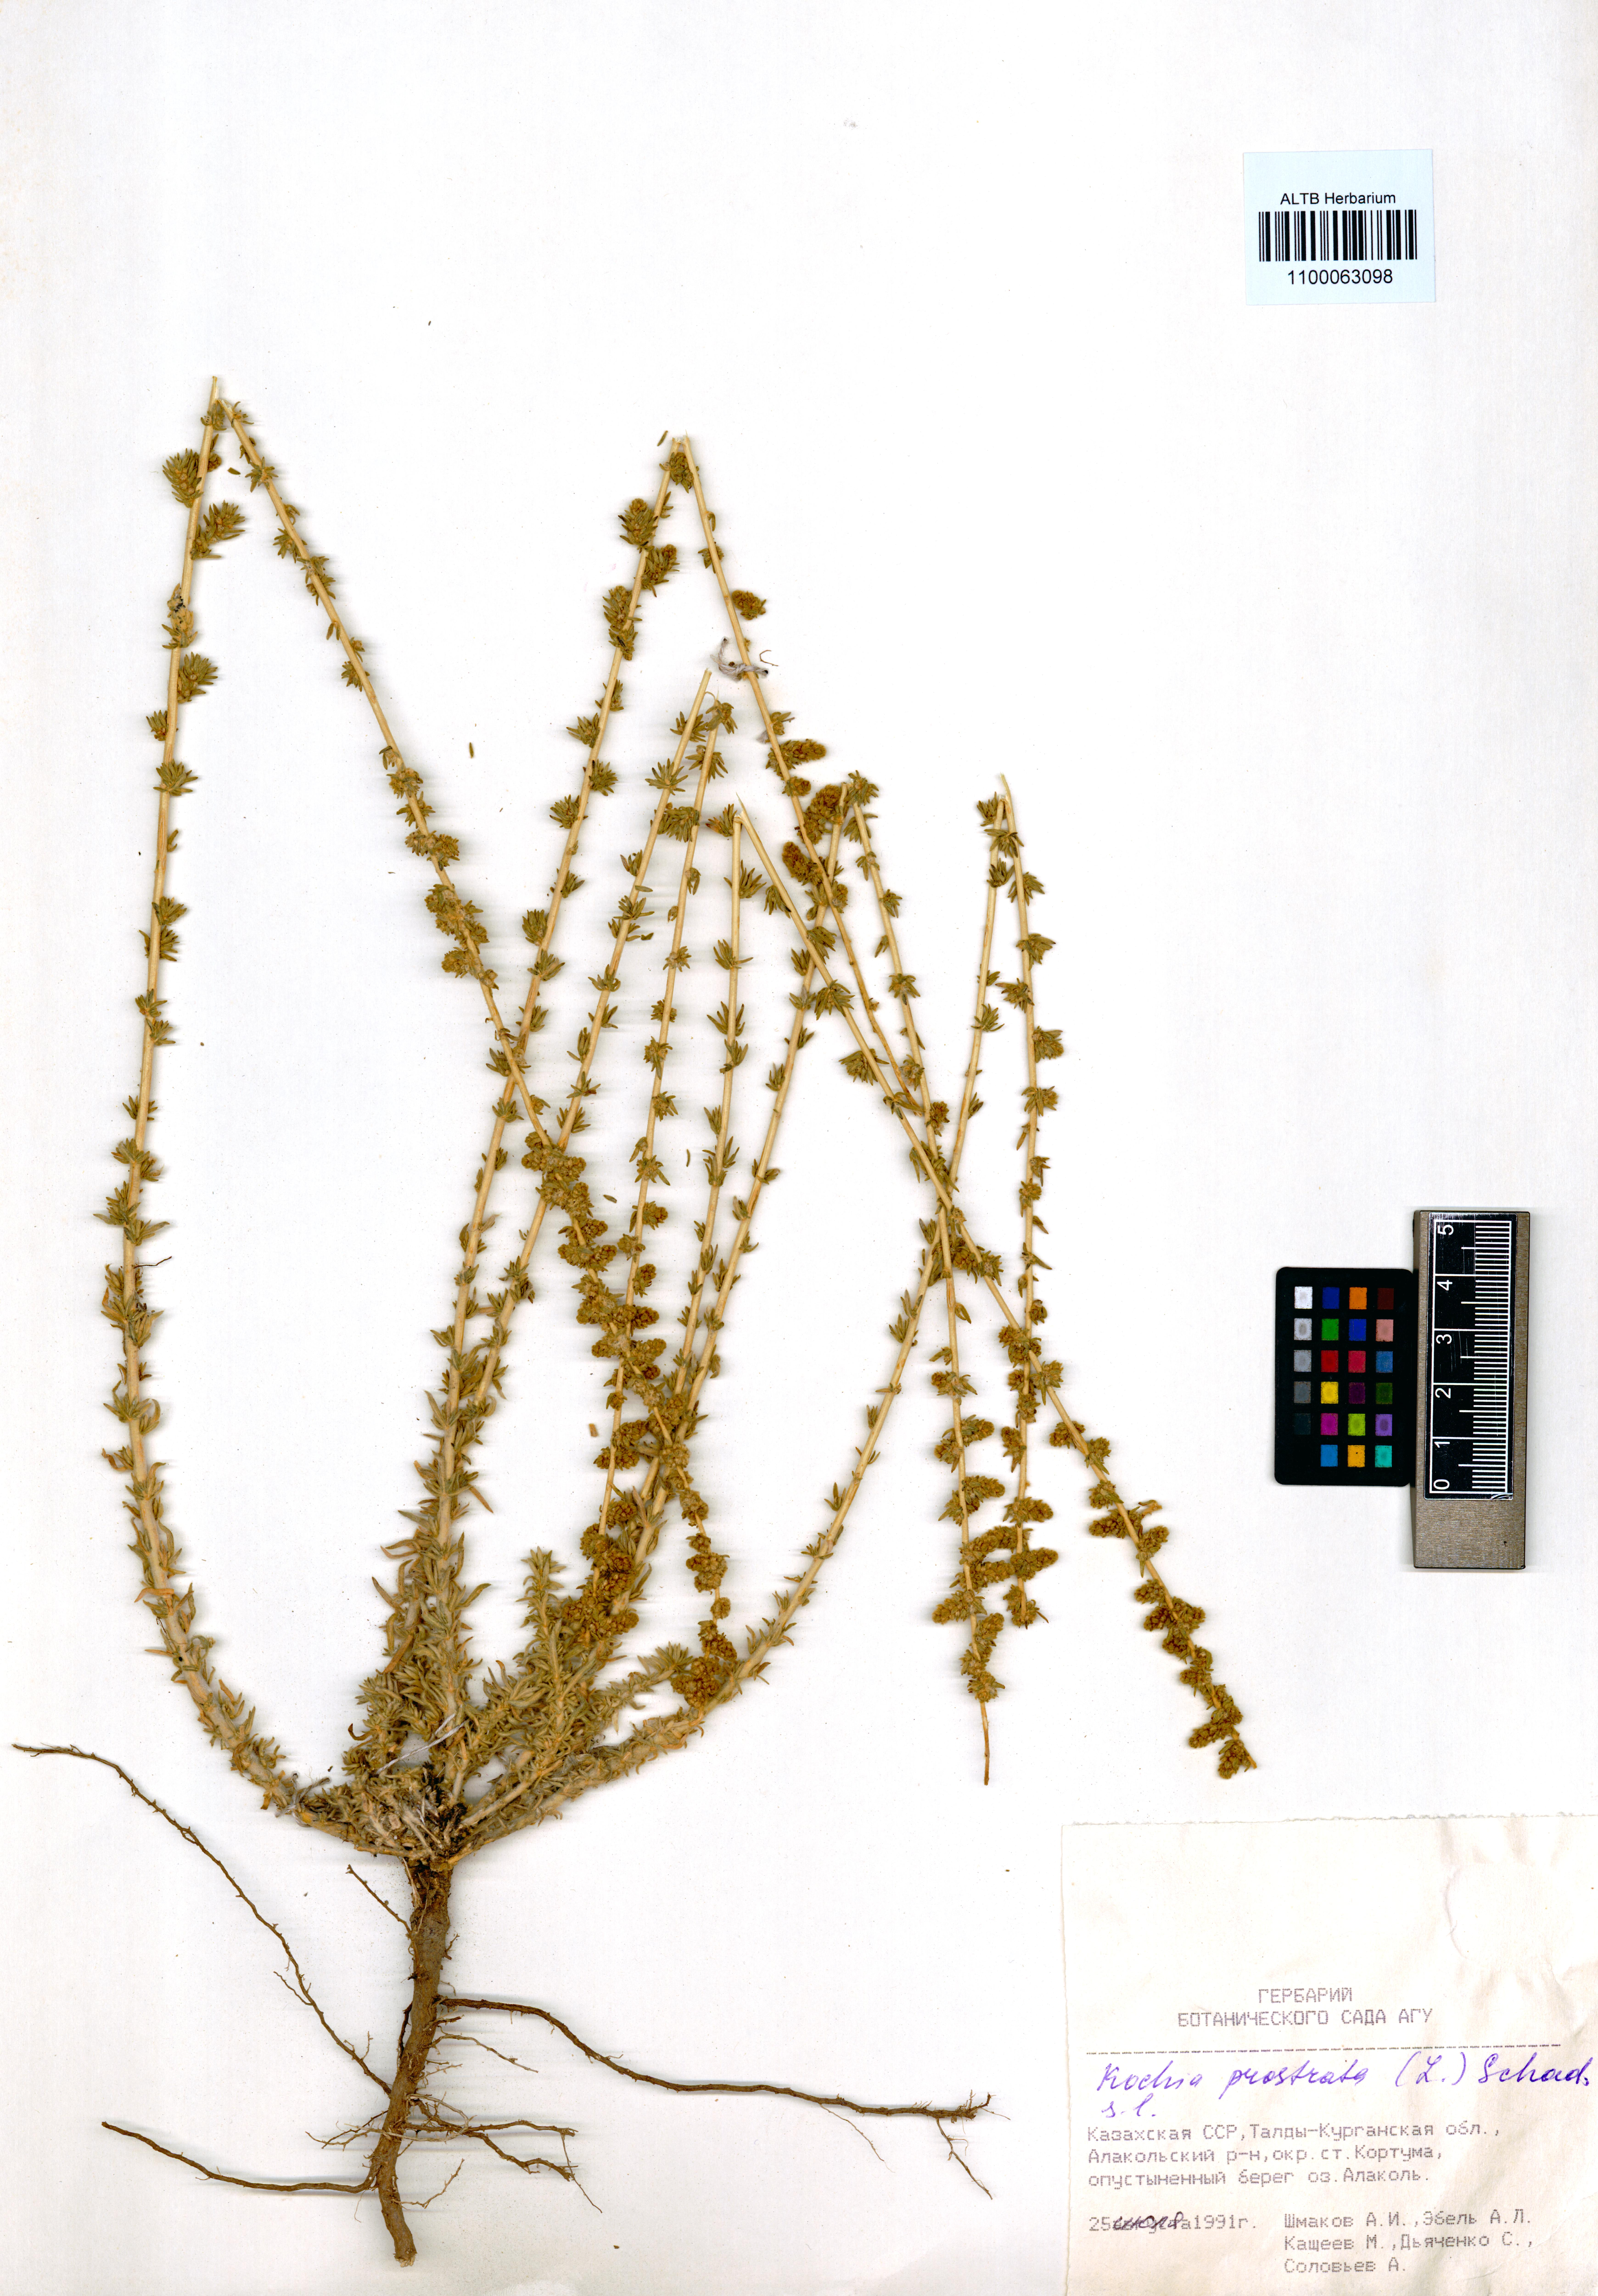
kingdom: Plantae
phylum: Tracheophyta
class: Magnoliopsida
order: Caryophyllales
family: Amaranthaceae
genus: Bassia
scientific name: Bassia prostrata
